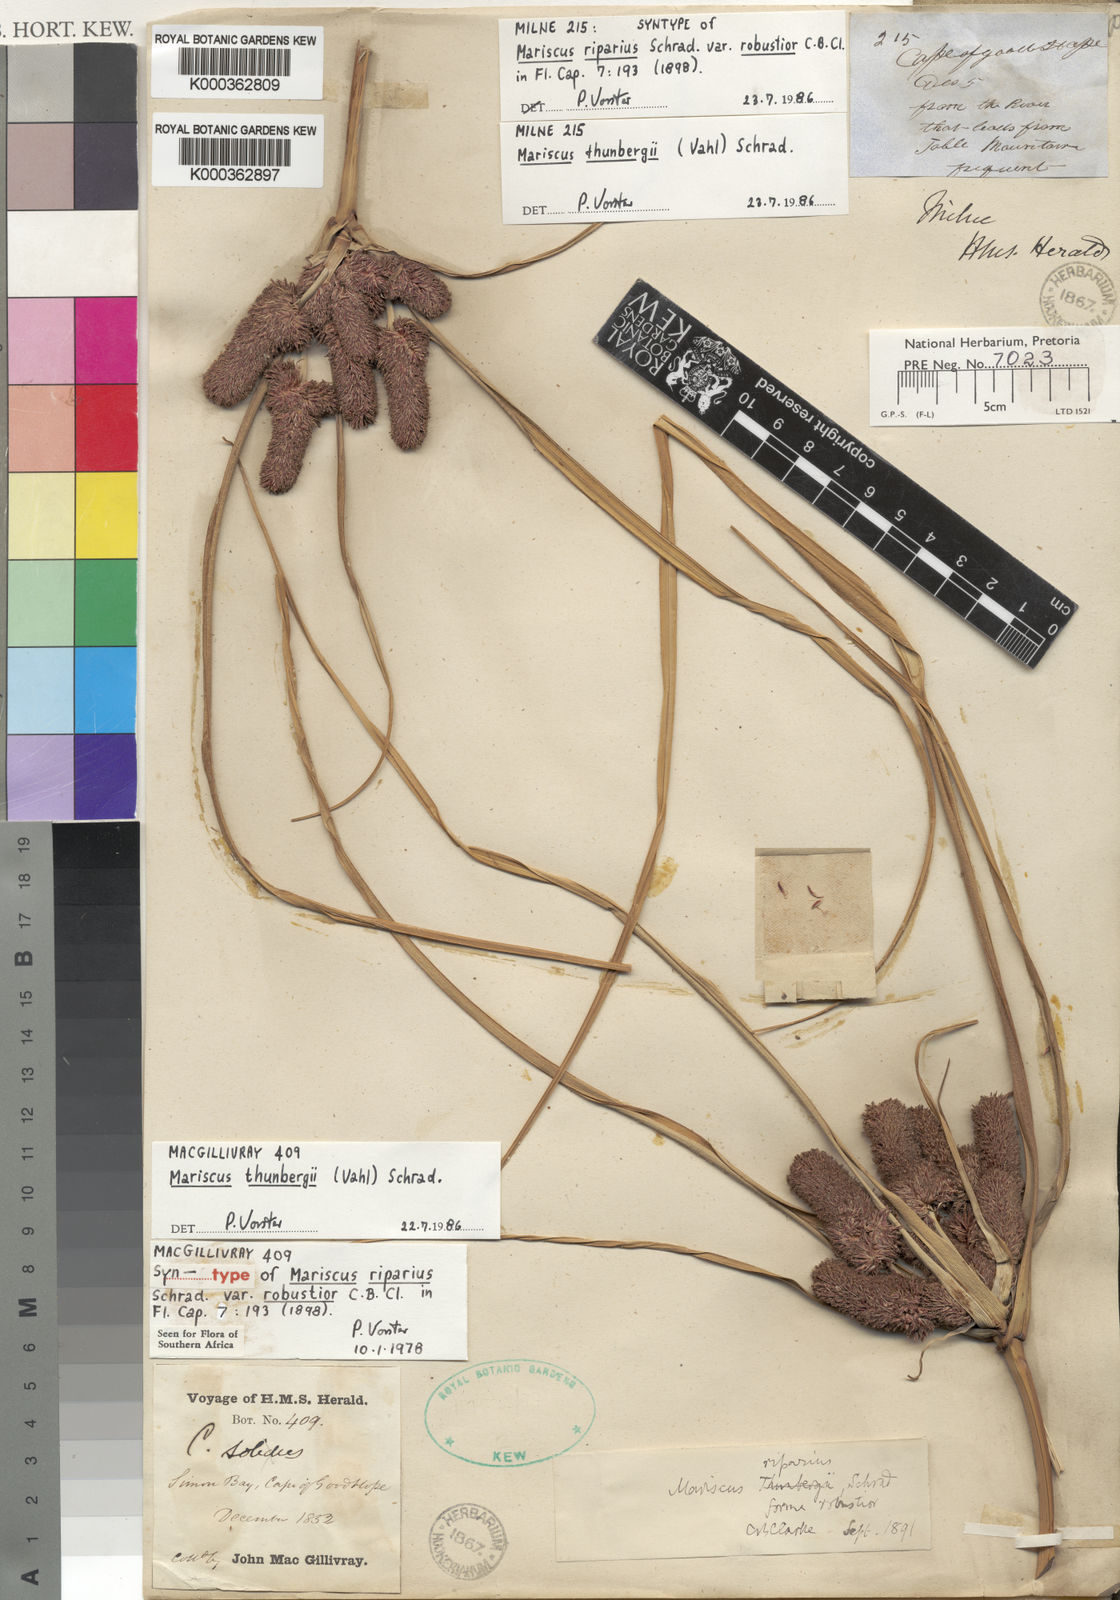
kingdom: Plantae
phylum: Tracheophyta
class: Liliopsida
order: Poales
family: Cyperaceae
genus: Cyperus
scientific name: Cyperus thunbergii
